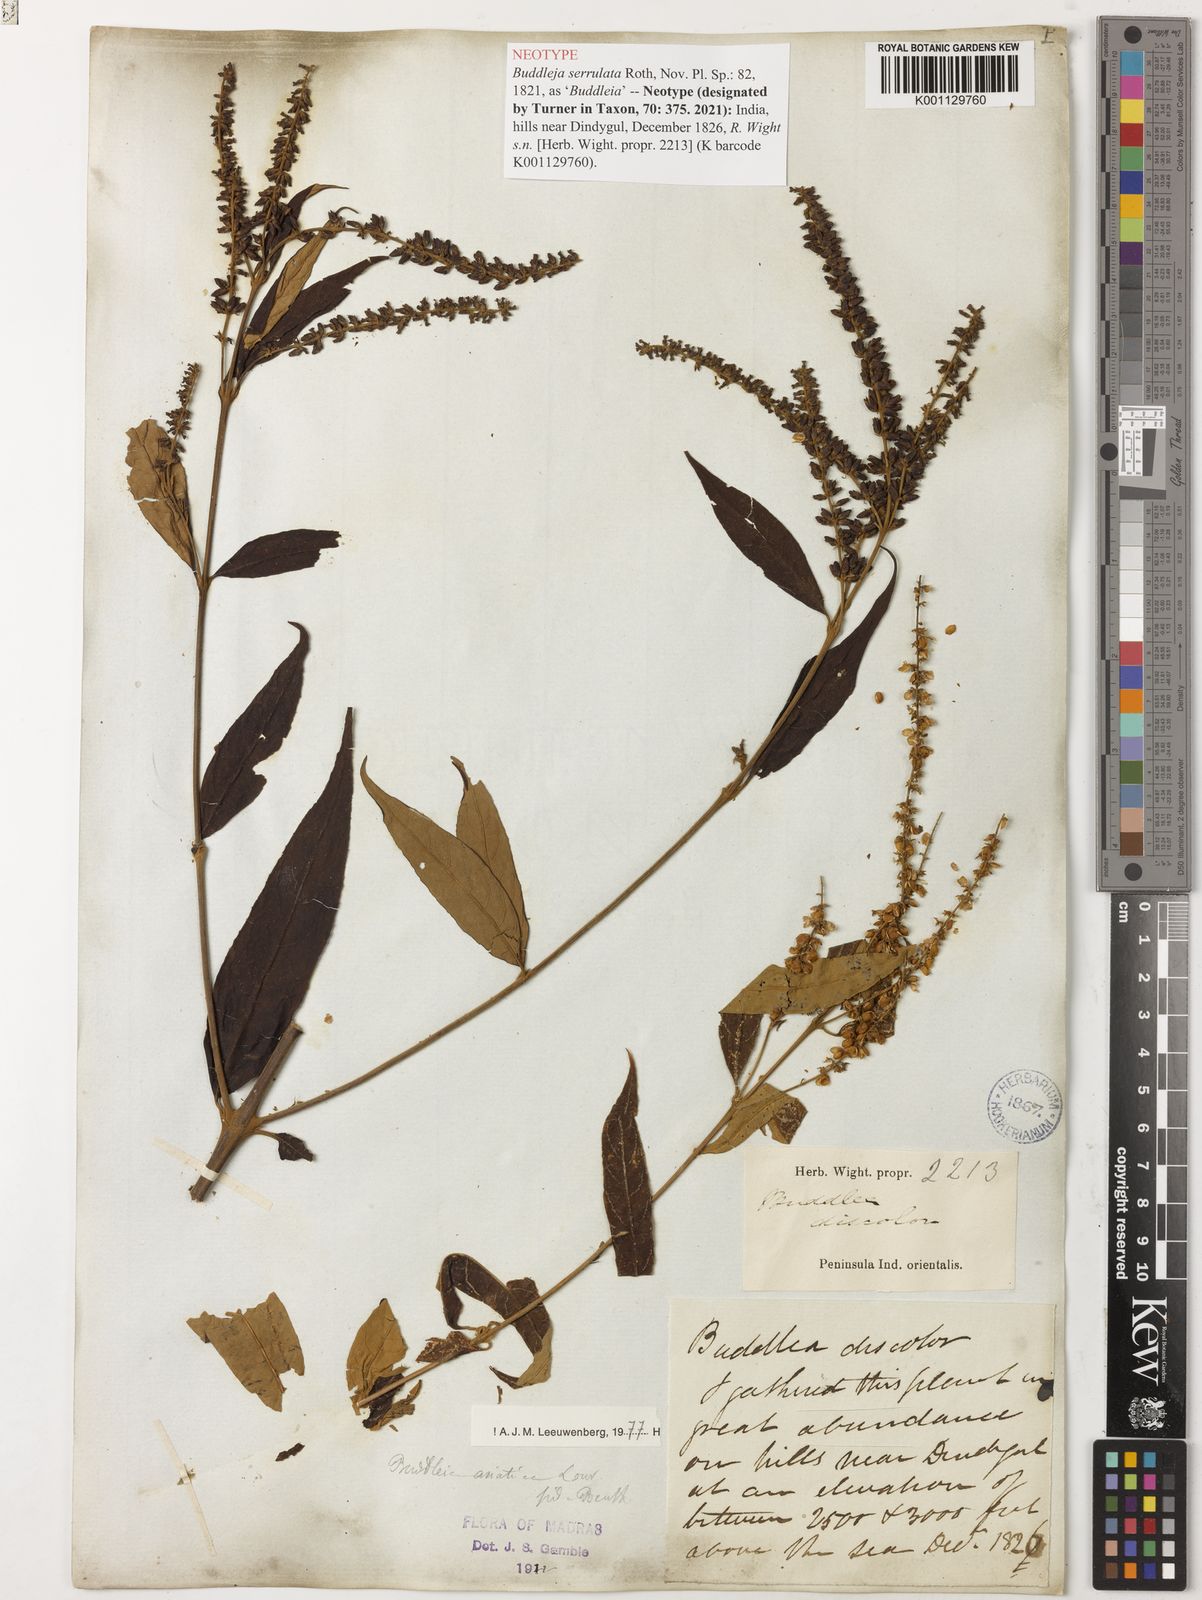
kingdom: Plantae
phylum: Tracheophyta
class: Magnoliopsida
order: Lamiales
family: Scrophulariaceae
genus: Buddleja
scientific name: Buddleja asiatica
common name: Dog tail
